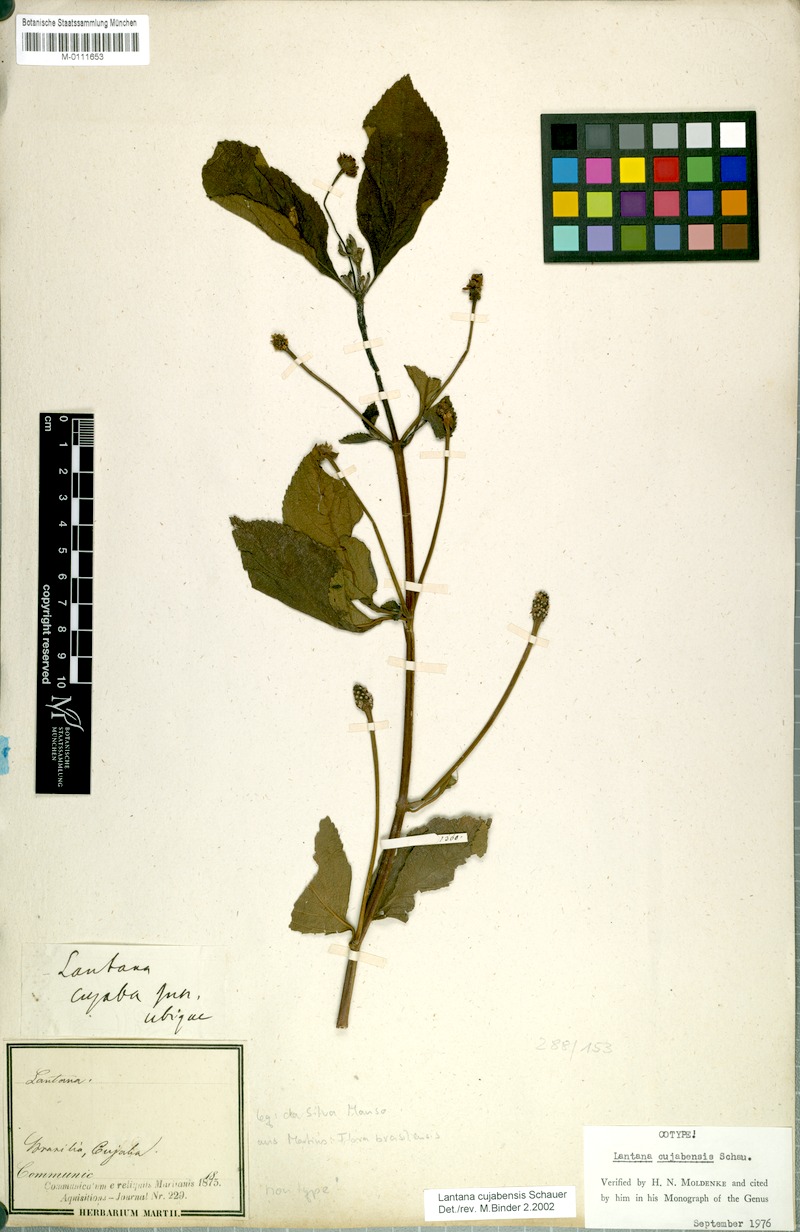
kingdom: Plantae
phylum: Tracheophyta
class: Magnoliopsida
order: Lamiales
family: Verbenaceae
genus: Lantana
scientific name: Lantana cujabensis
